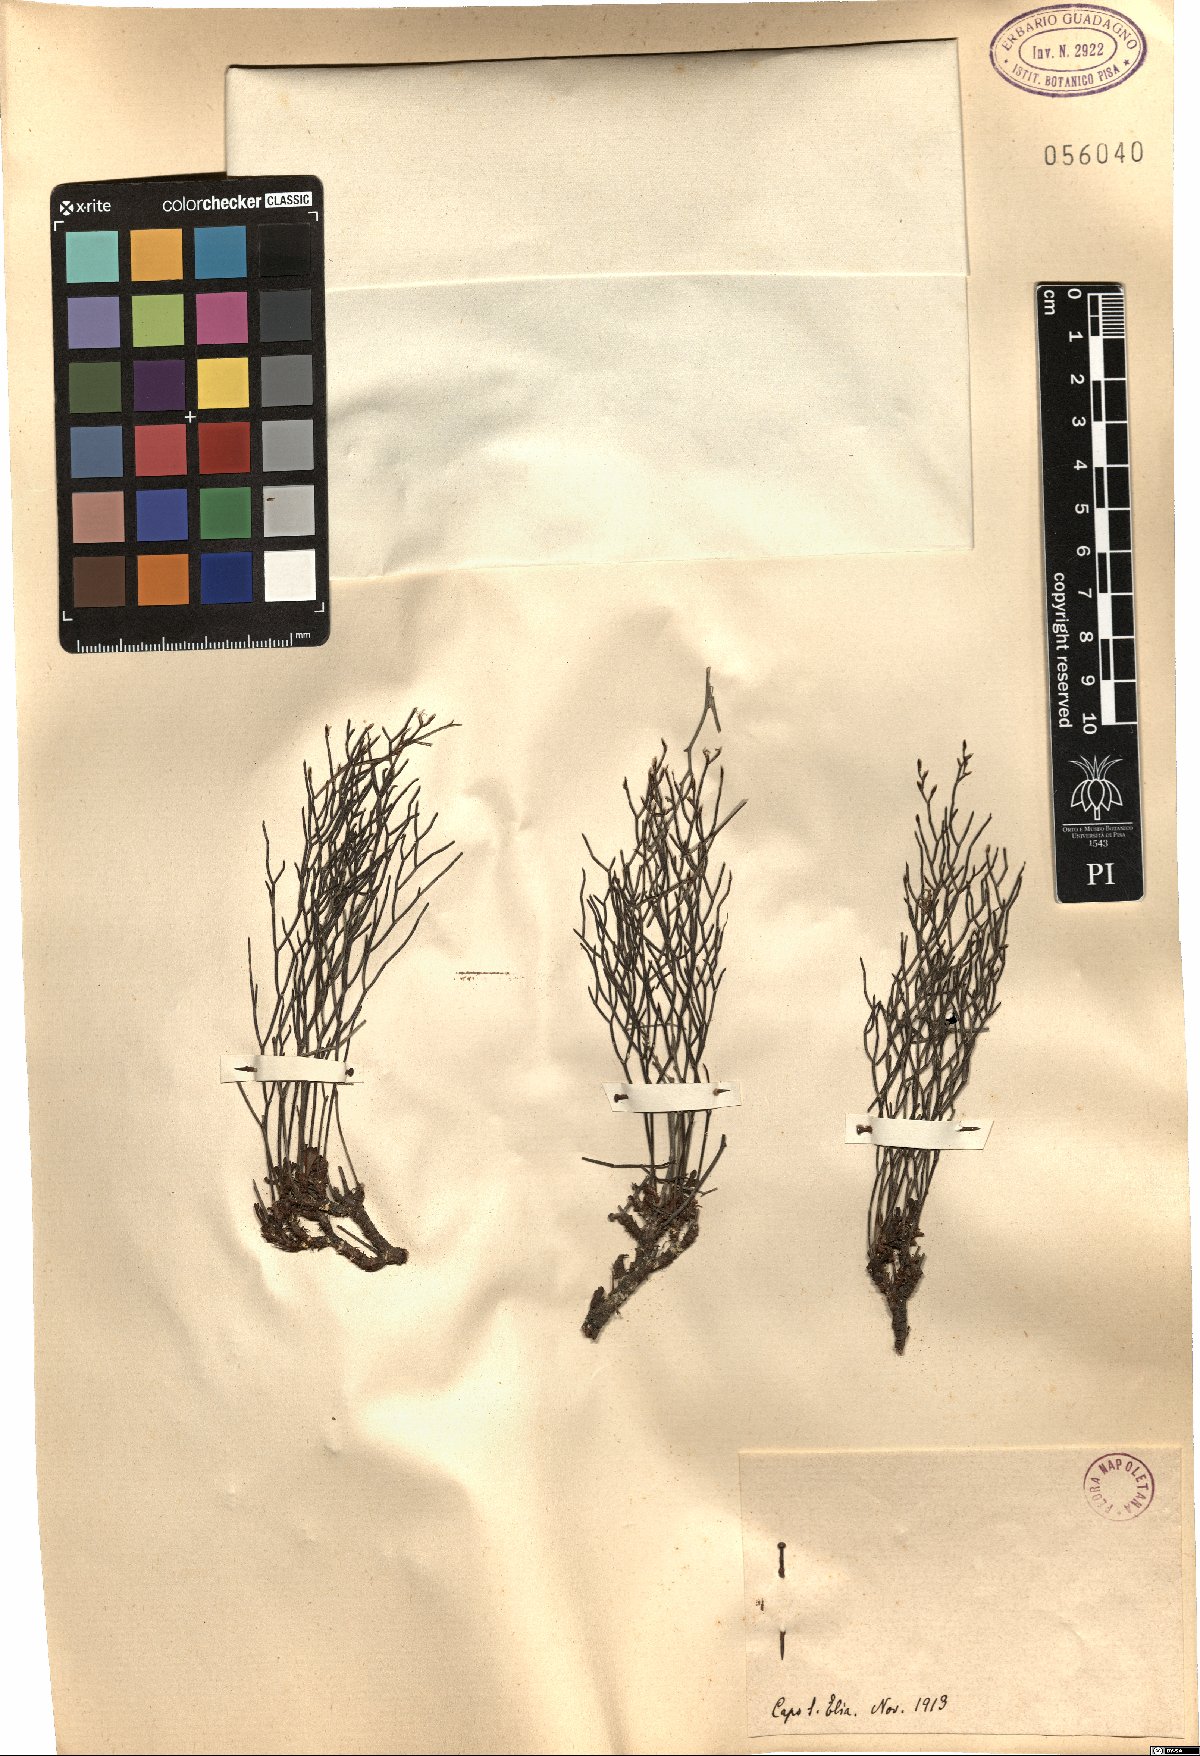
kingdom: Plantae
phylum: Tracheophyta
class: Magnoliopsida
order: Caryophyllales
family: Plumbaginaceae
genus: Armeria
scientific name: Armeria
